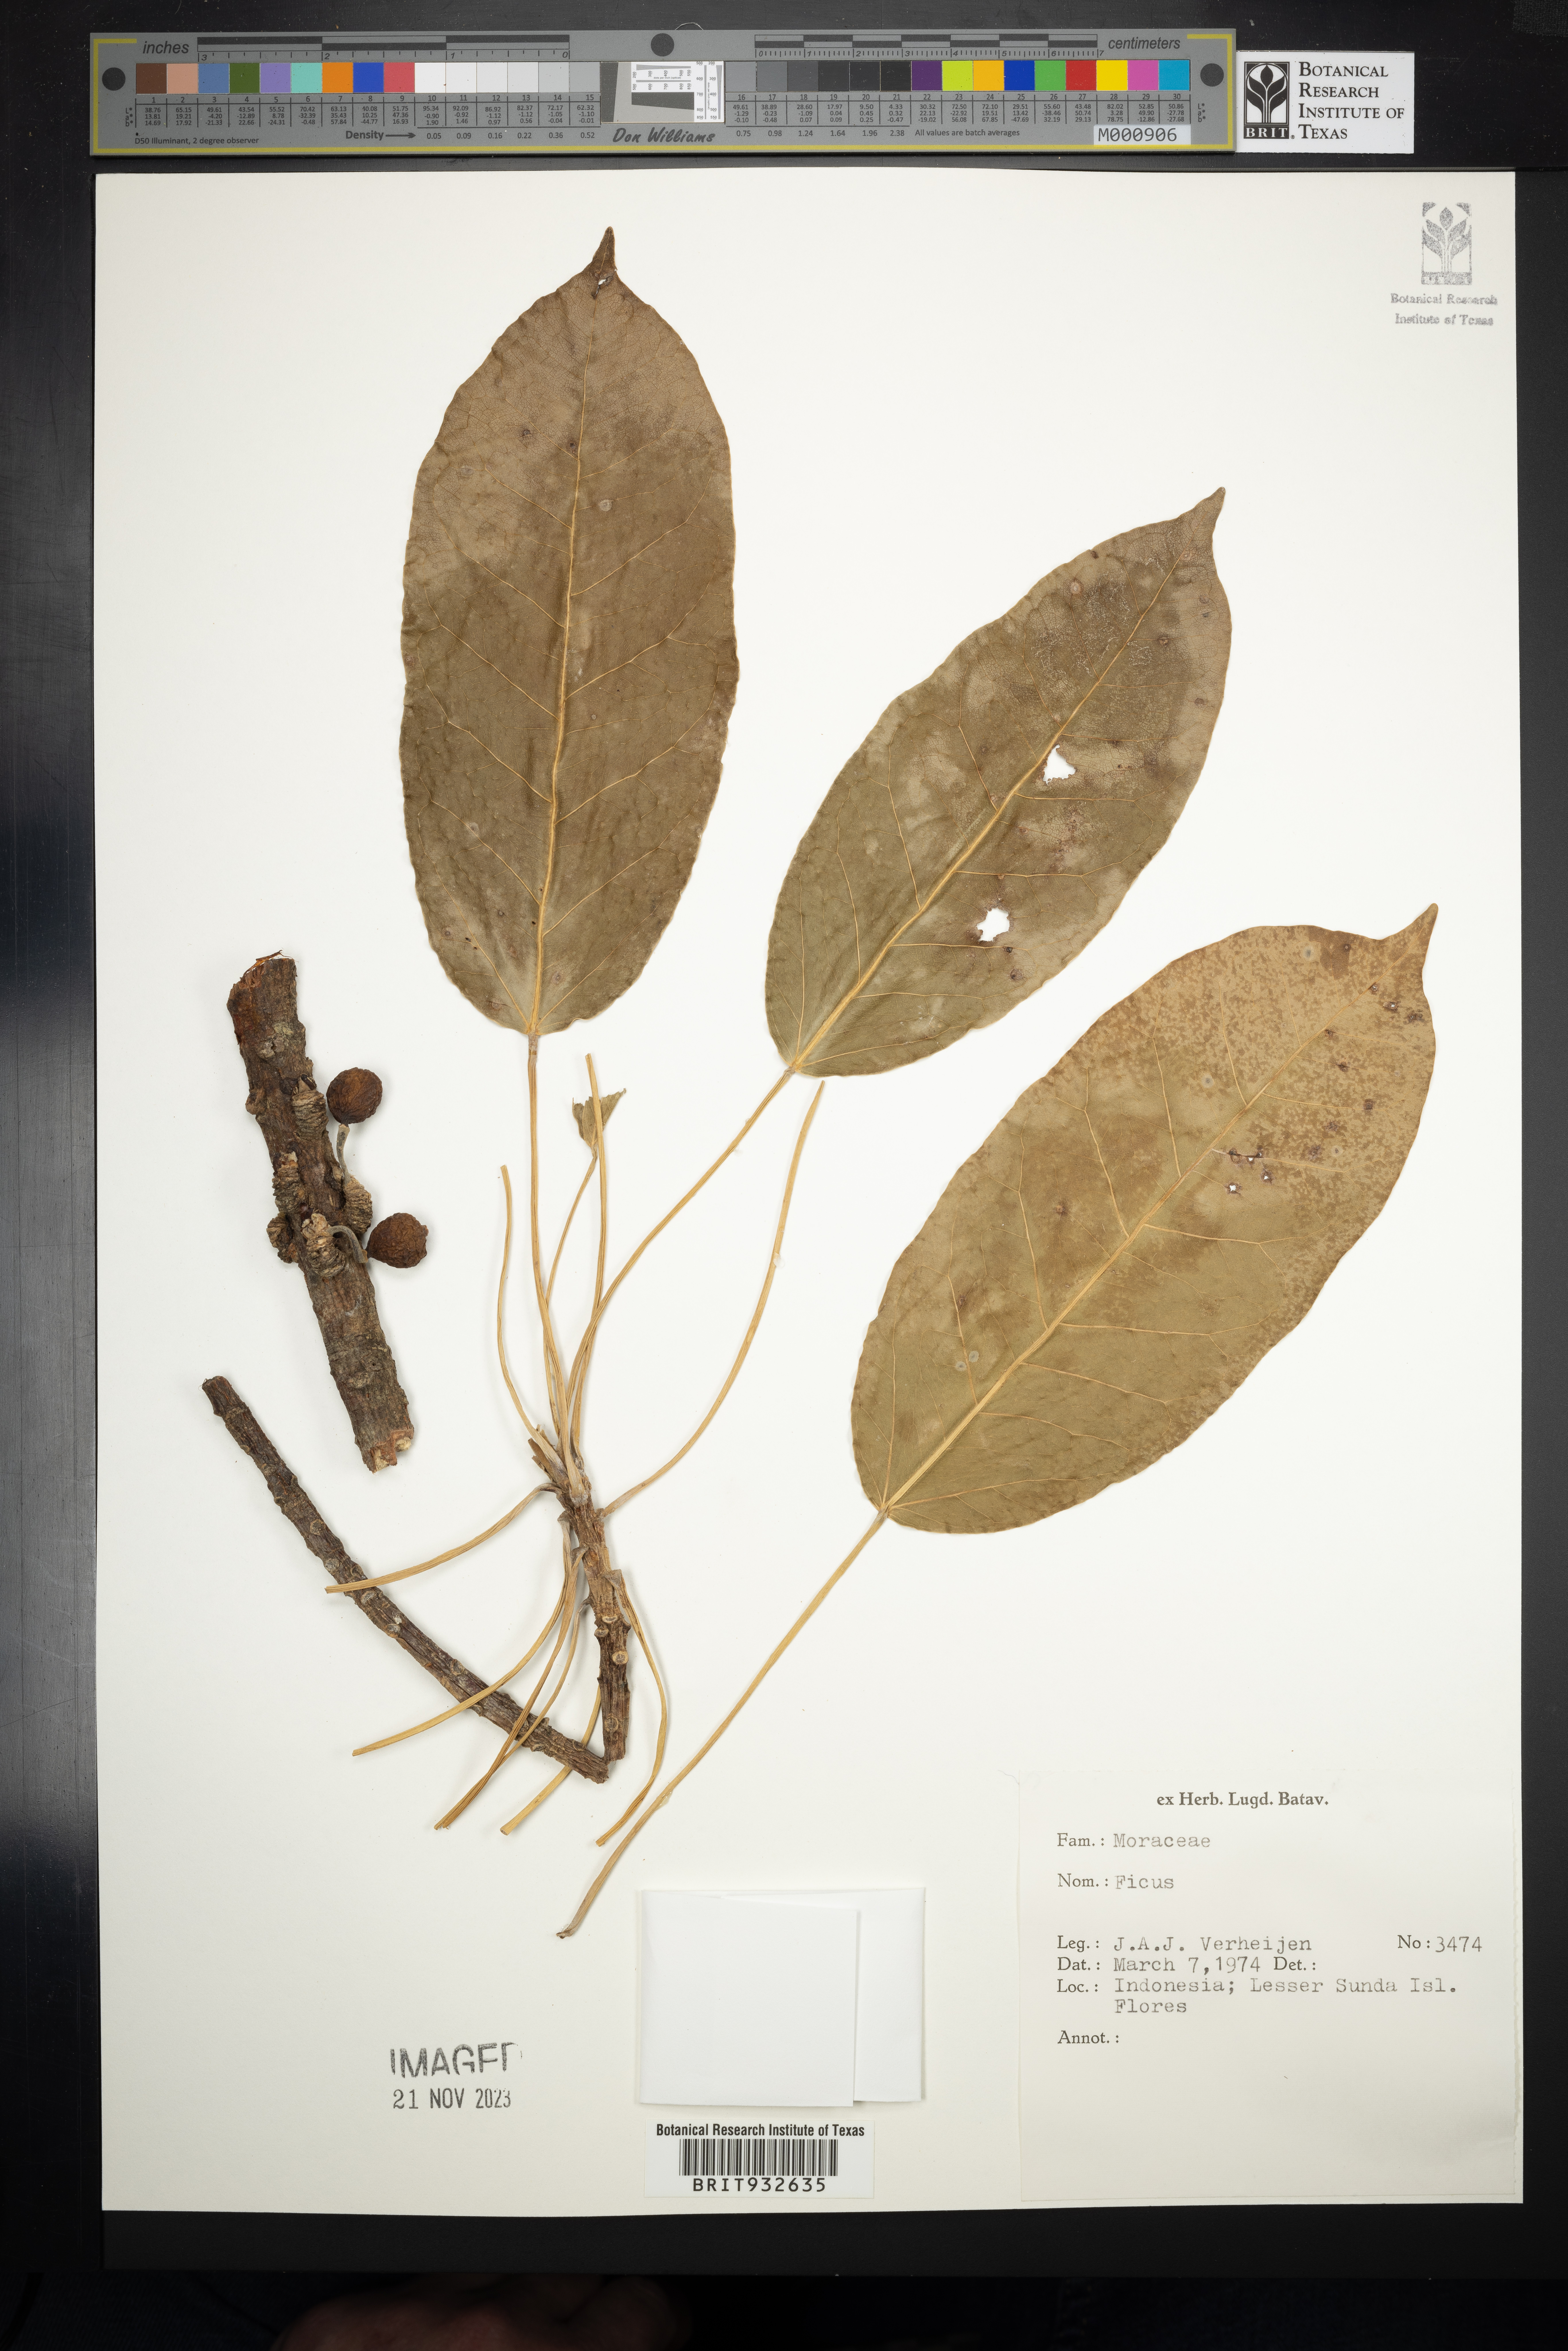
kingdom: Plantae
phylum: Tracheophyta
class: Magnoliopsida
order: Rosales
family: Moraceae
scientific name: Moraceae
